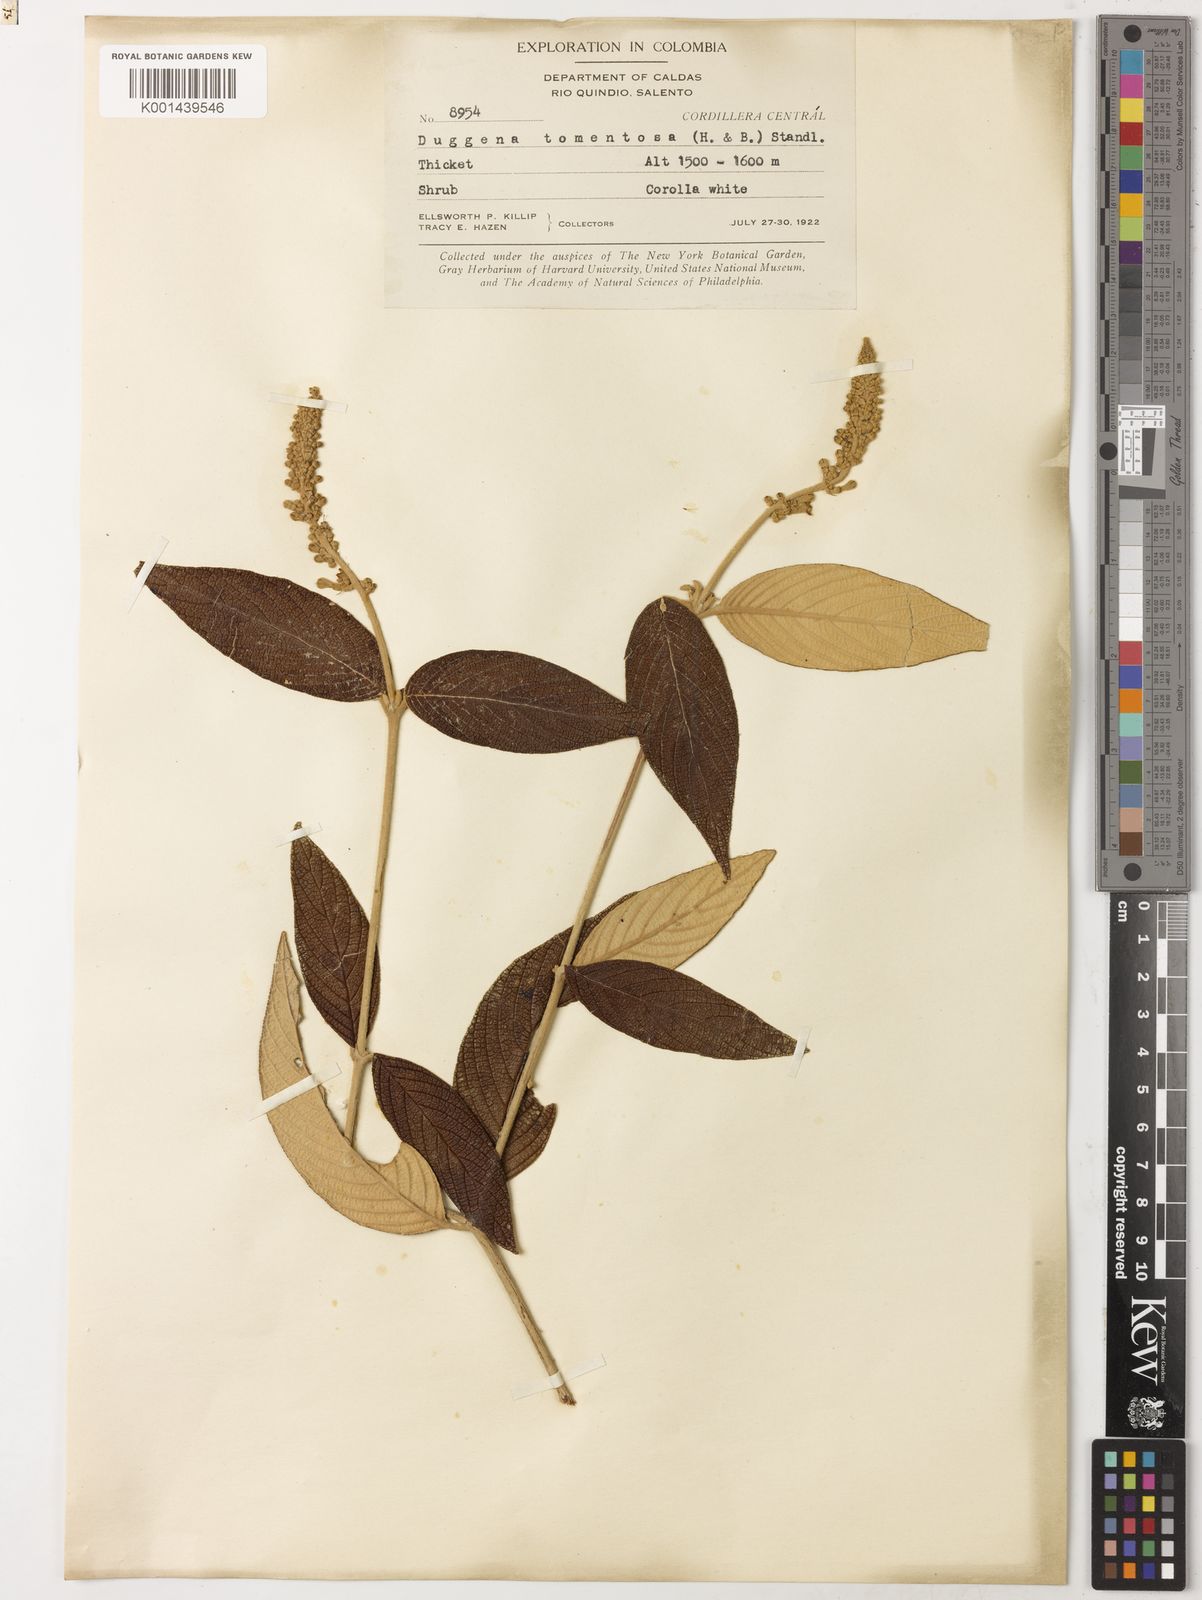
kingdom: Plantae
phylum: Tracheophyta
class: Magnoliopsida
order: Gentianales
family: Rubiaceae
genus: Gonzalagunia
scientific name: Gonzalagunia dependens
